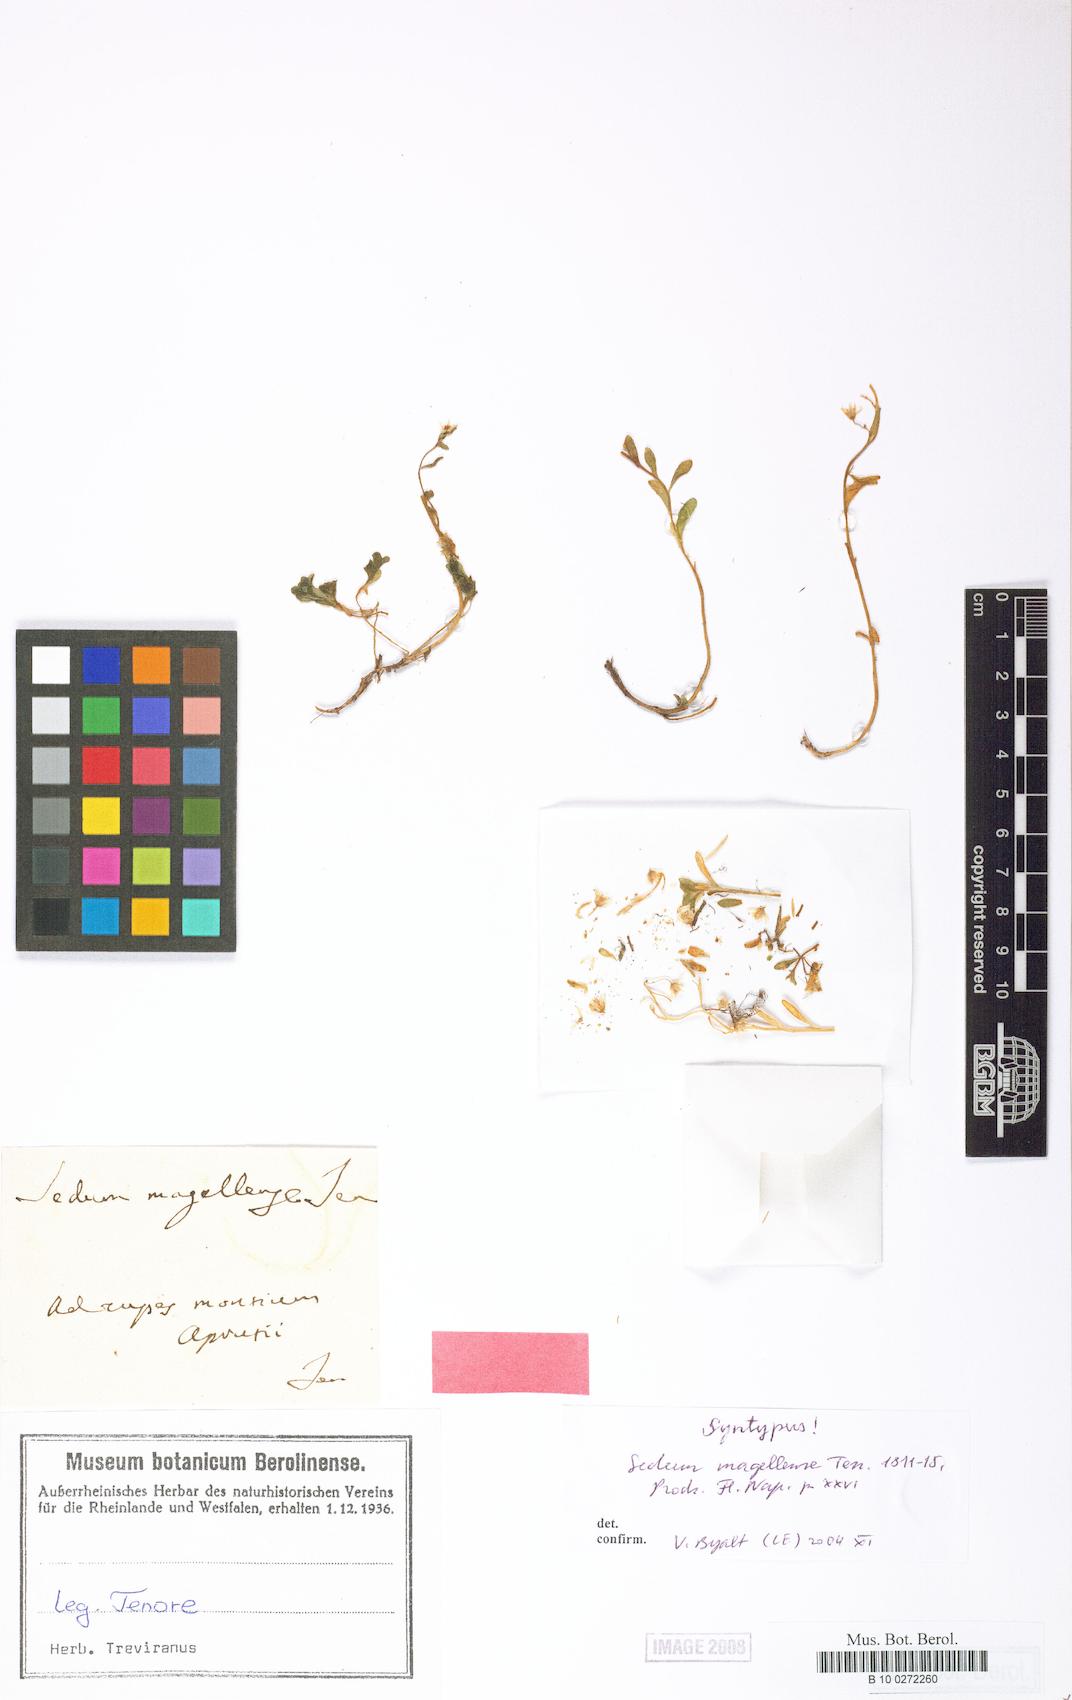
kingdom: Plantae
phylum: Tracheophyta
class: Magnoliopsida
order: Saxifragales
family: Crassulaceae
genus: Sedum
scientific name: Sedum magellense
